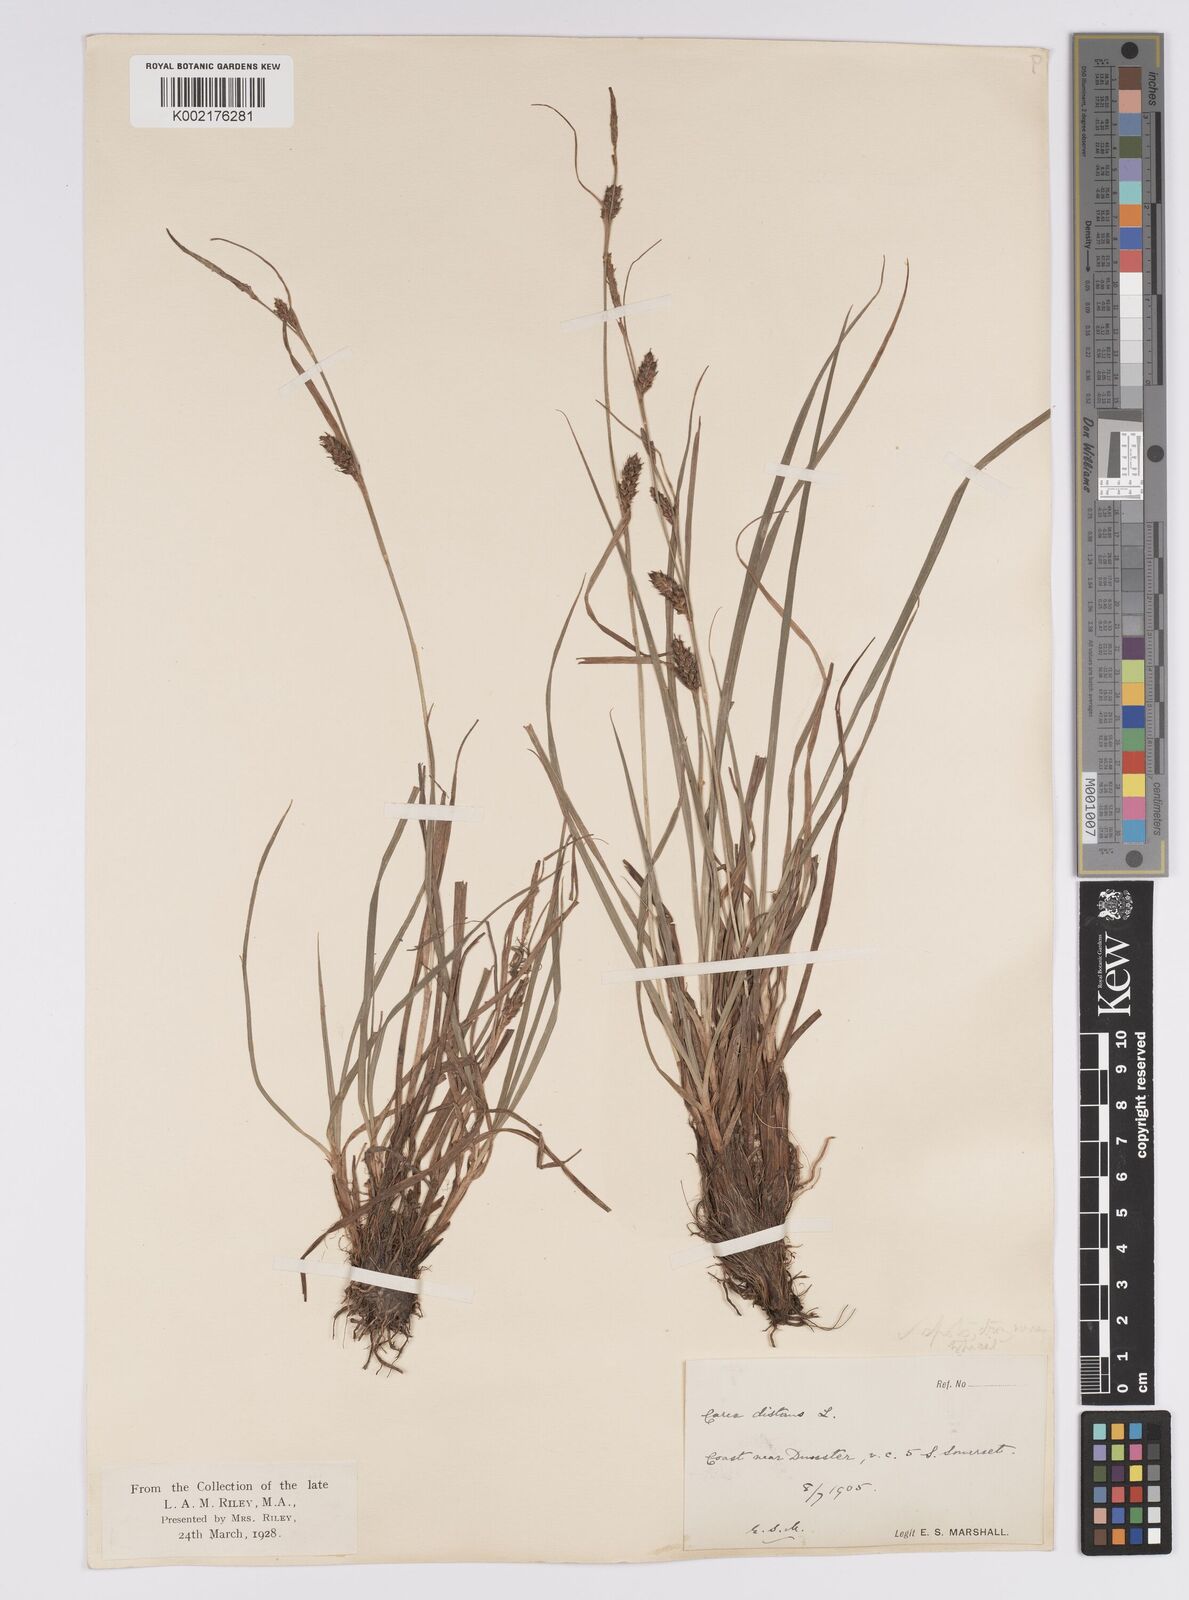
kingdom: Plantae
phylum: Tracheophyta
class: Liliopsida
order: Poales
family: Cyperaceae
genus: Carex
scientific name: Carex distans
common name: Distant sedge
